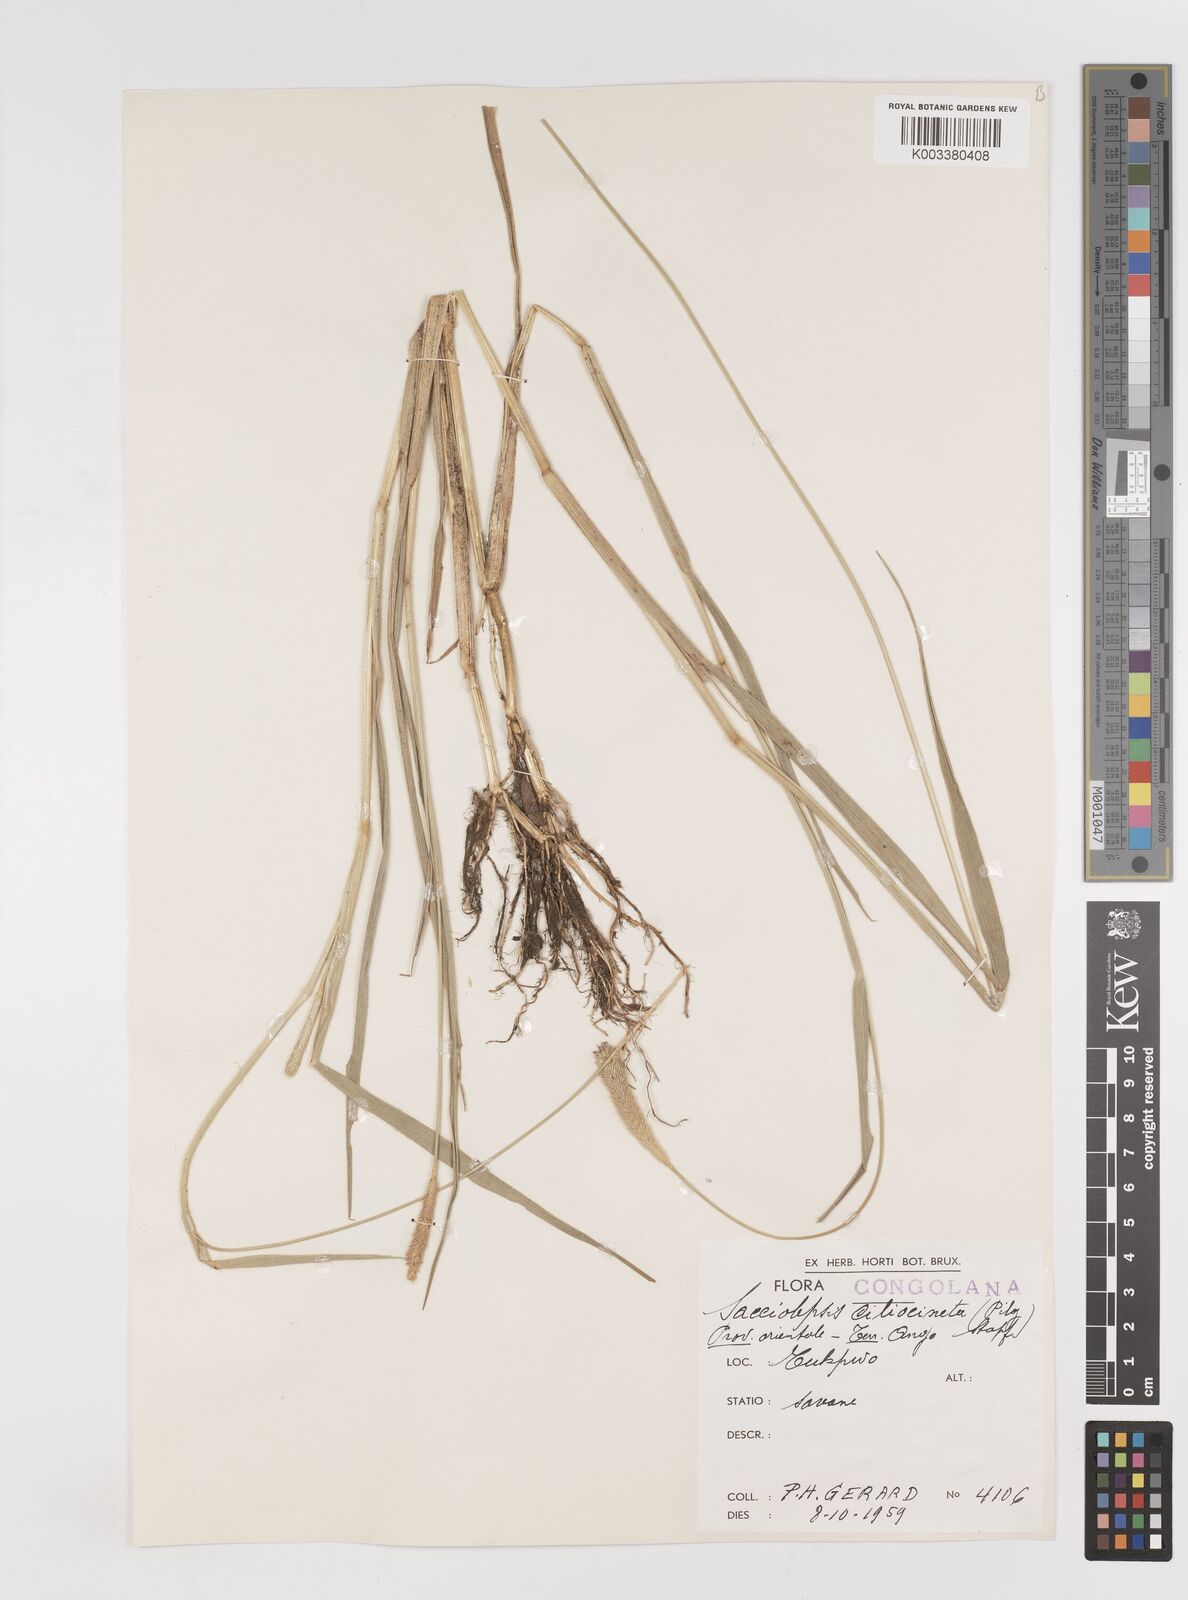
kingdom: Plantae
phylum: Tracheophyta
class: Liliopsida
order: Poales
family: Poaceae
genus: Sacciolepis
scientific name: Sacciolepis ciliocincta
